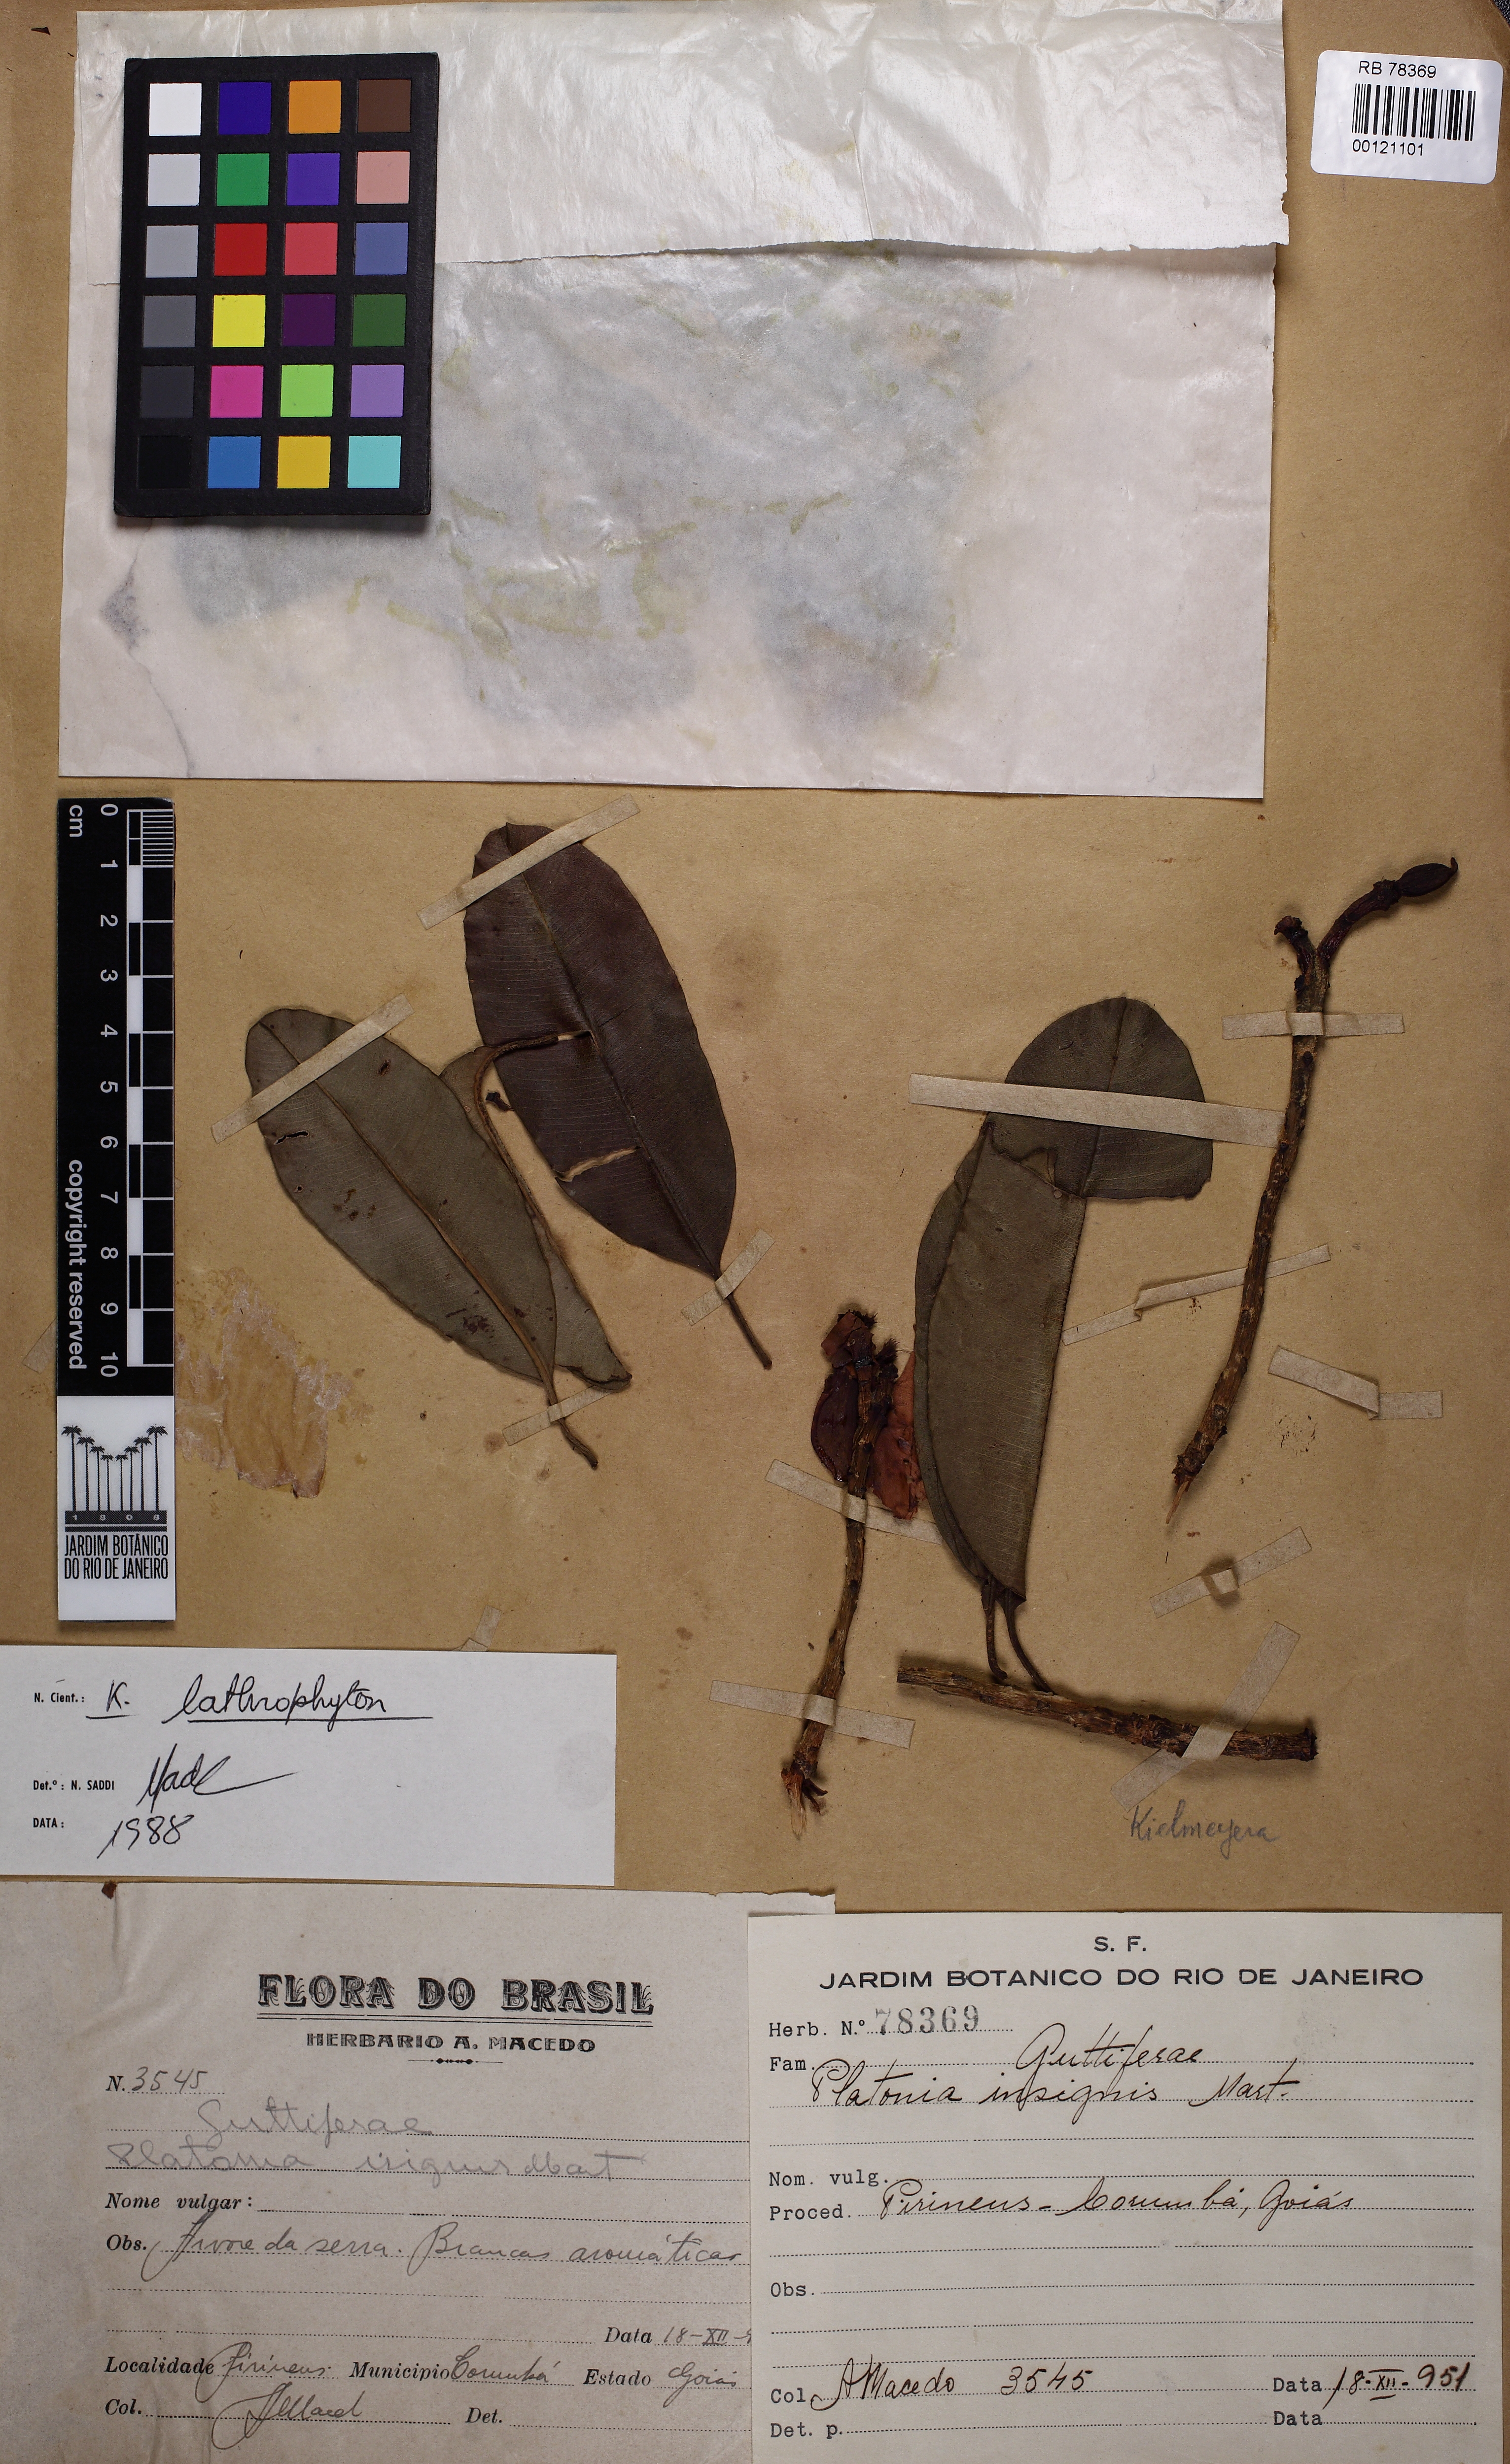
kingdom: Plantae
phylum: Tracheophyta
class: Magnoliopsida
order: Malpighiales
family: Calophyllaceae
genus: Kielmeyera
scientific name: Kielmeyera lathrophyton
